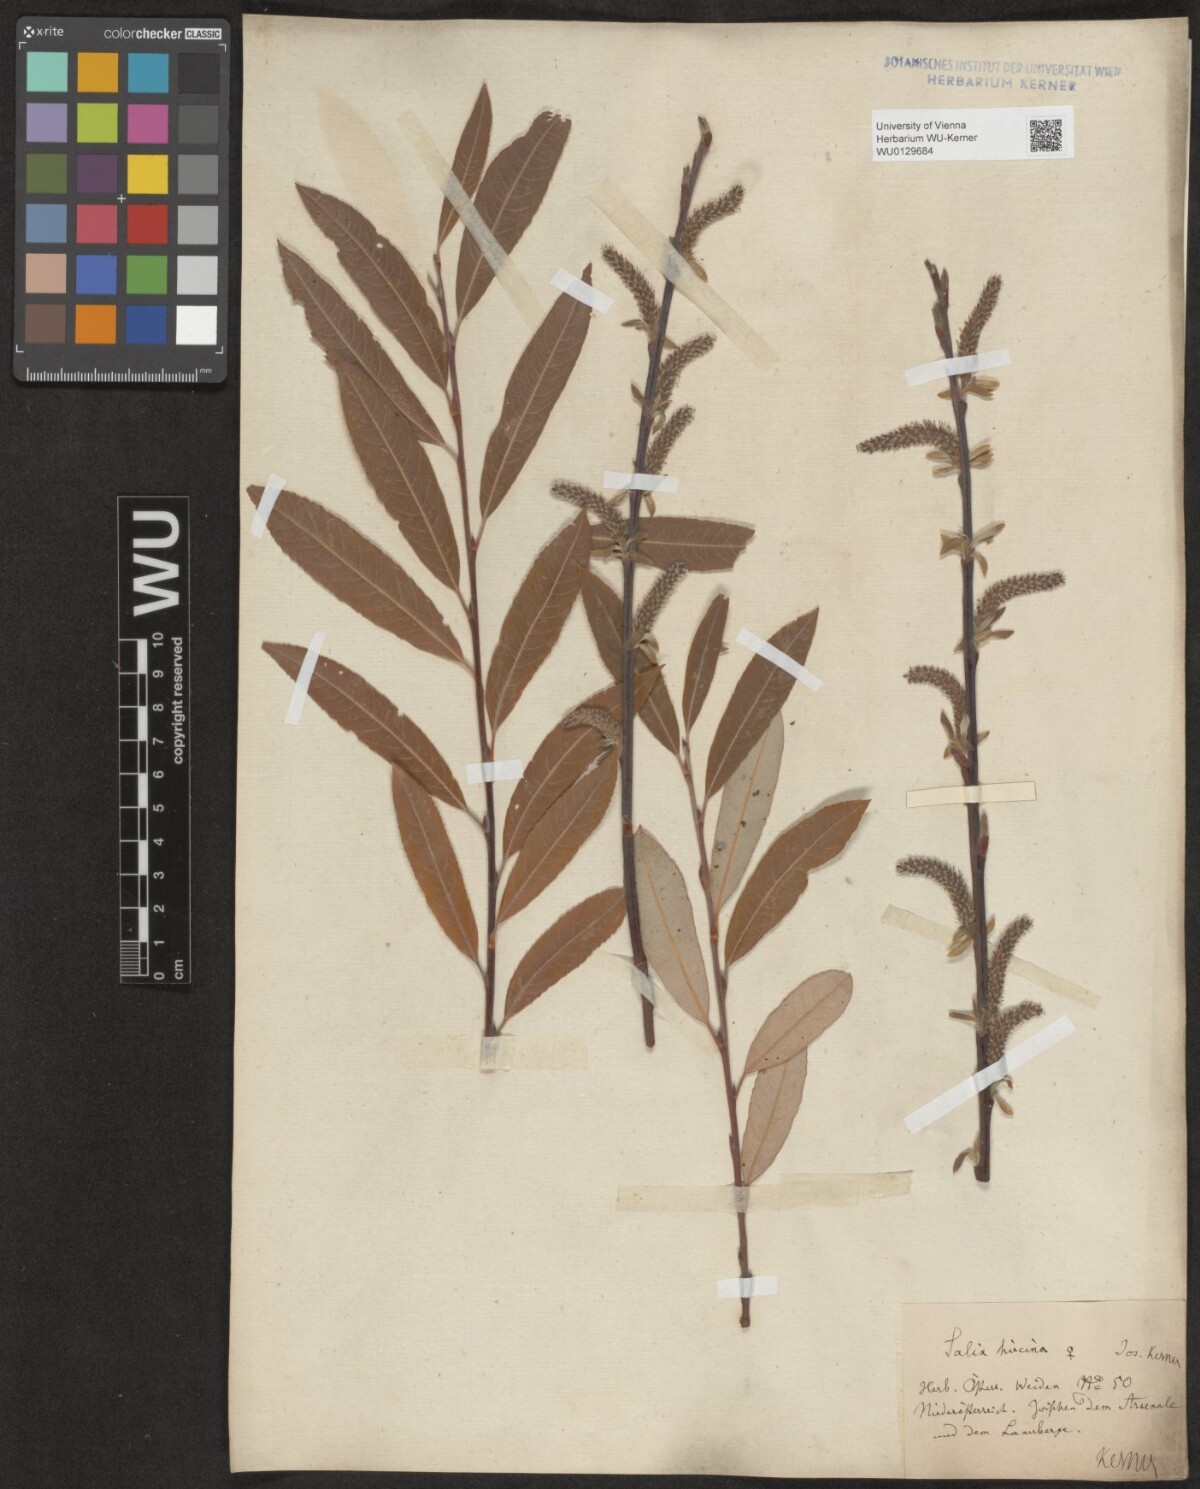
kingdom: Plantae
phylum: Tracheophyta
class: Magnoliopsida
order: Malpighiales
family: Salicaceae
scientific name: Salicaceae
